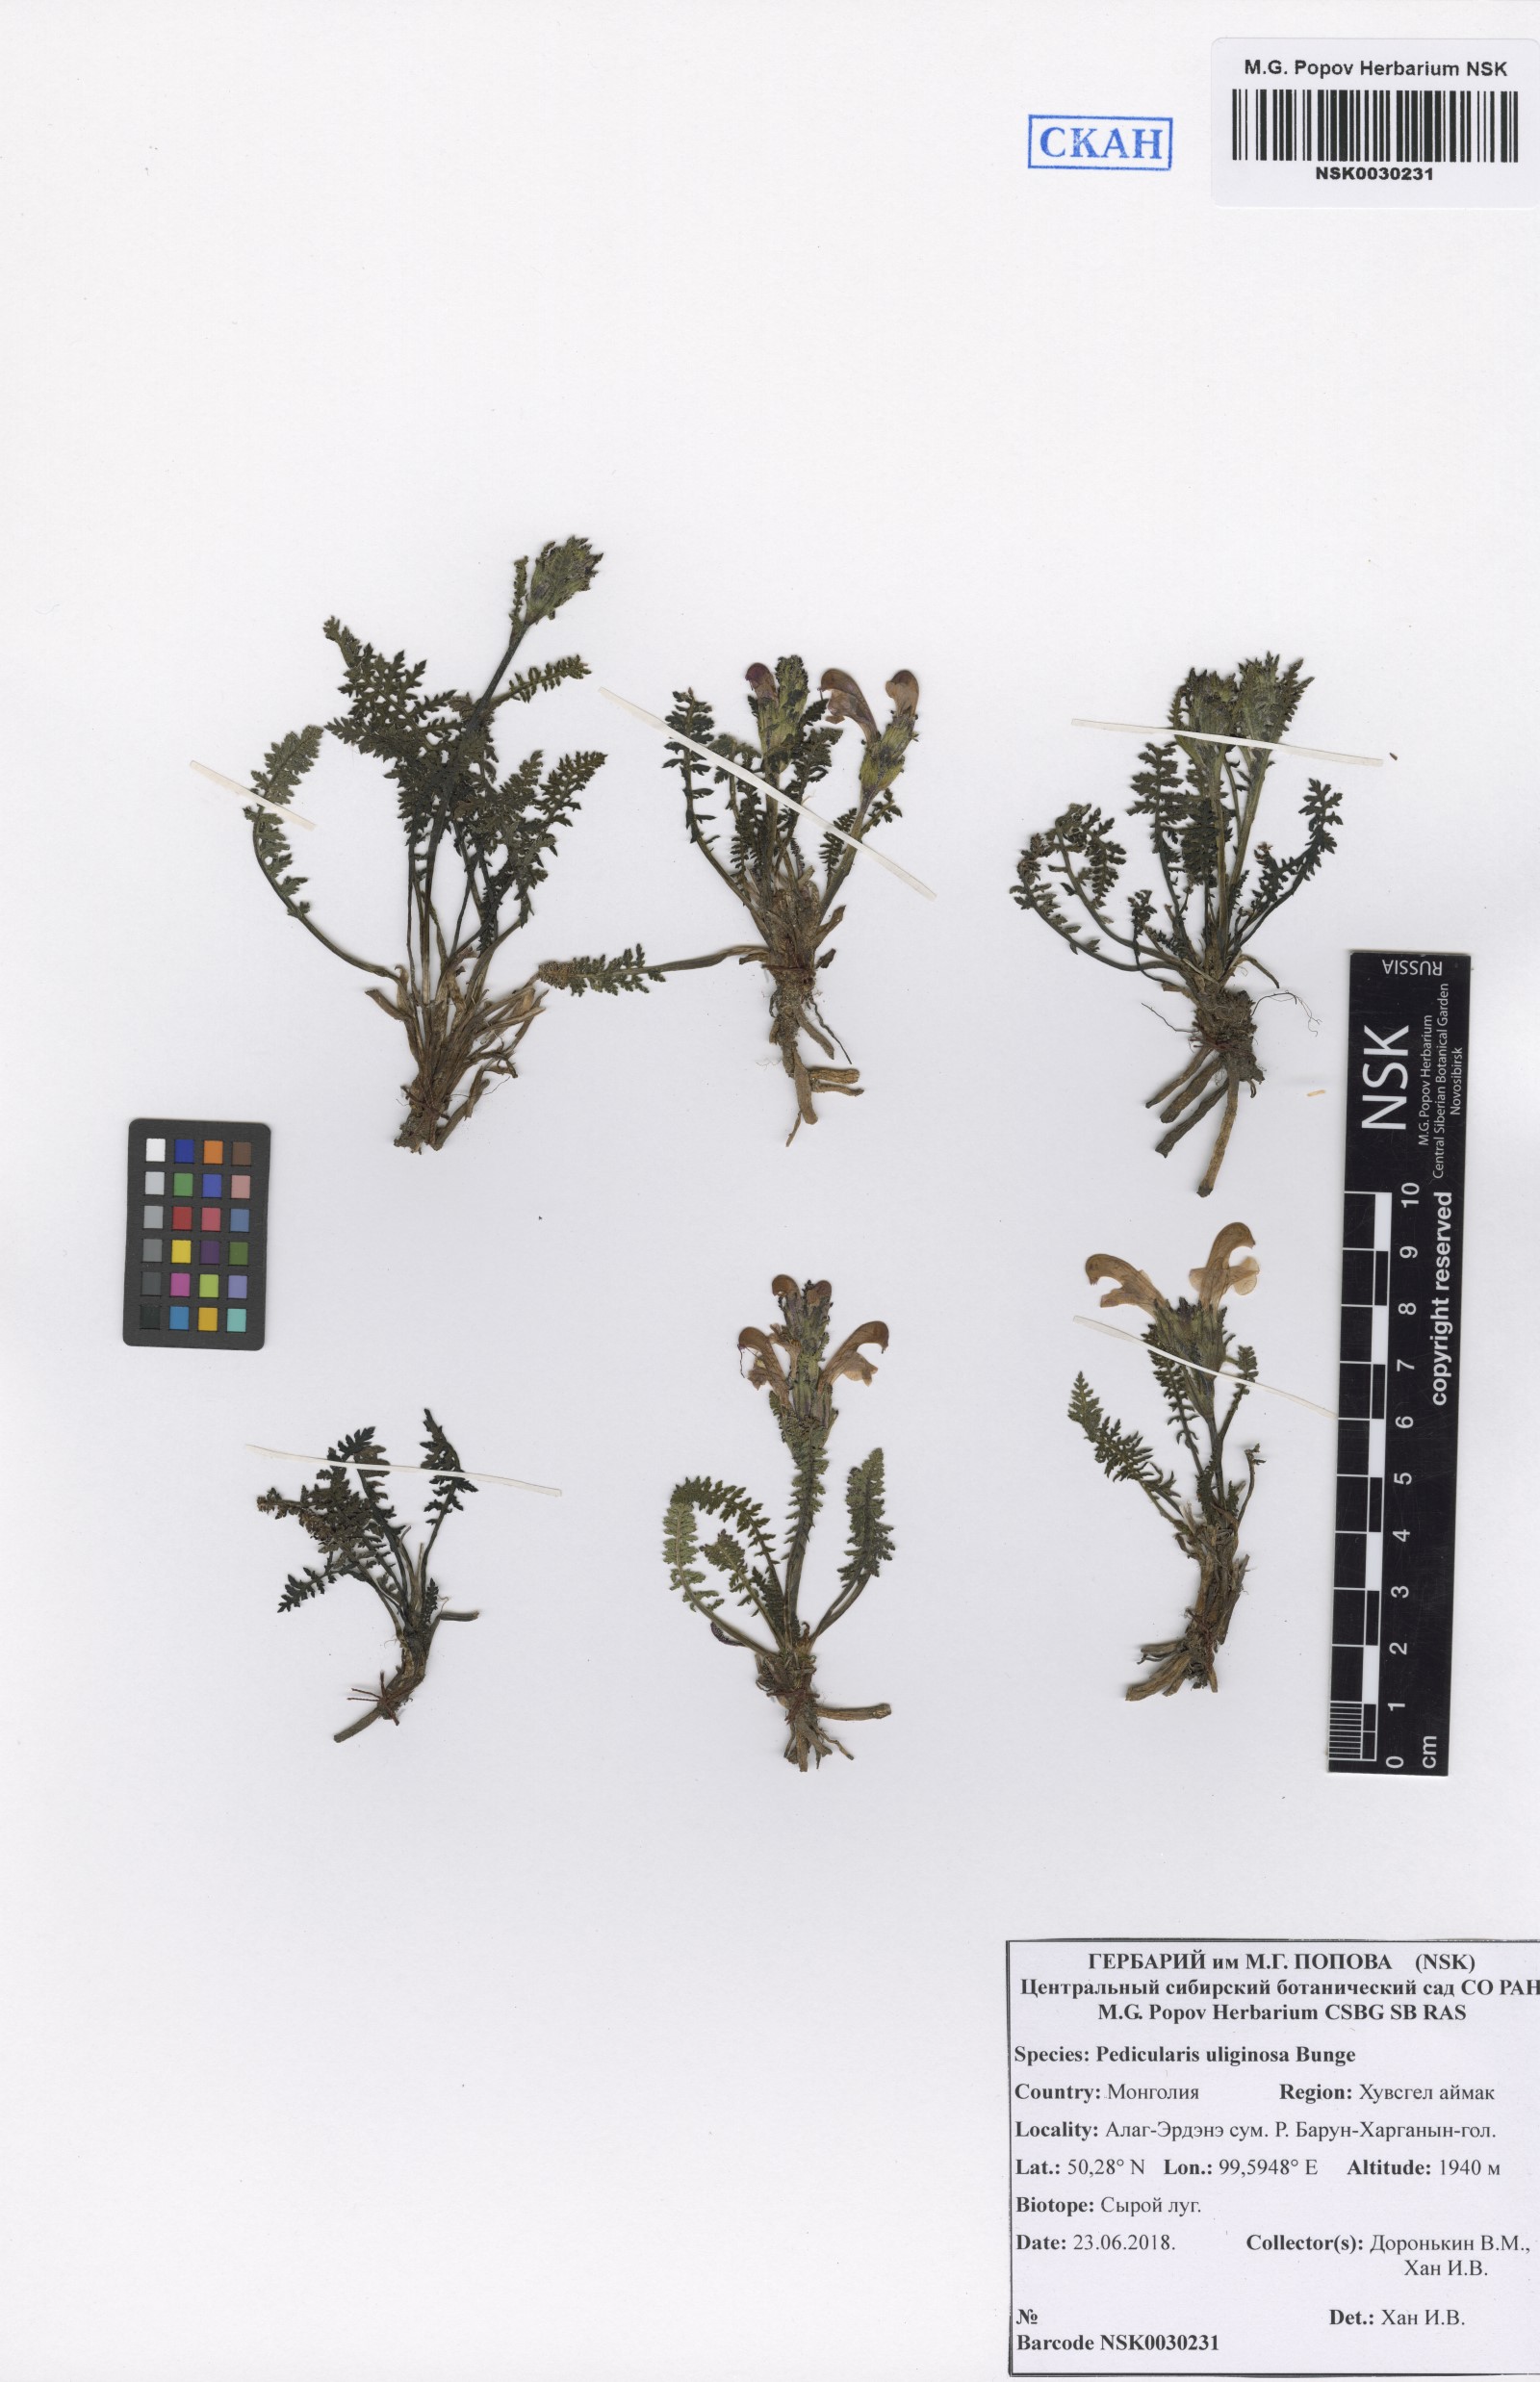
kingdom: Plantae
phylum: Tracheophyta
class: Magnoliopsida
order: Lamiales
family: Orobanchaceae
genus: Pedicularis
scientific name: Pedicularis uliginosa
